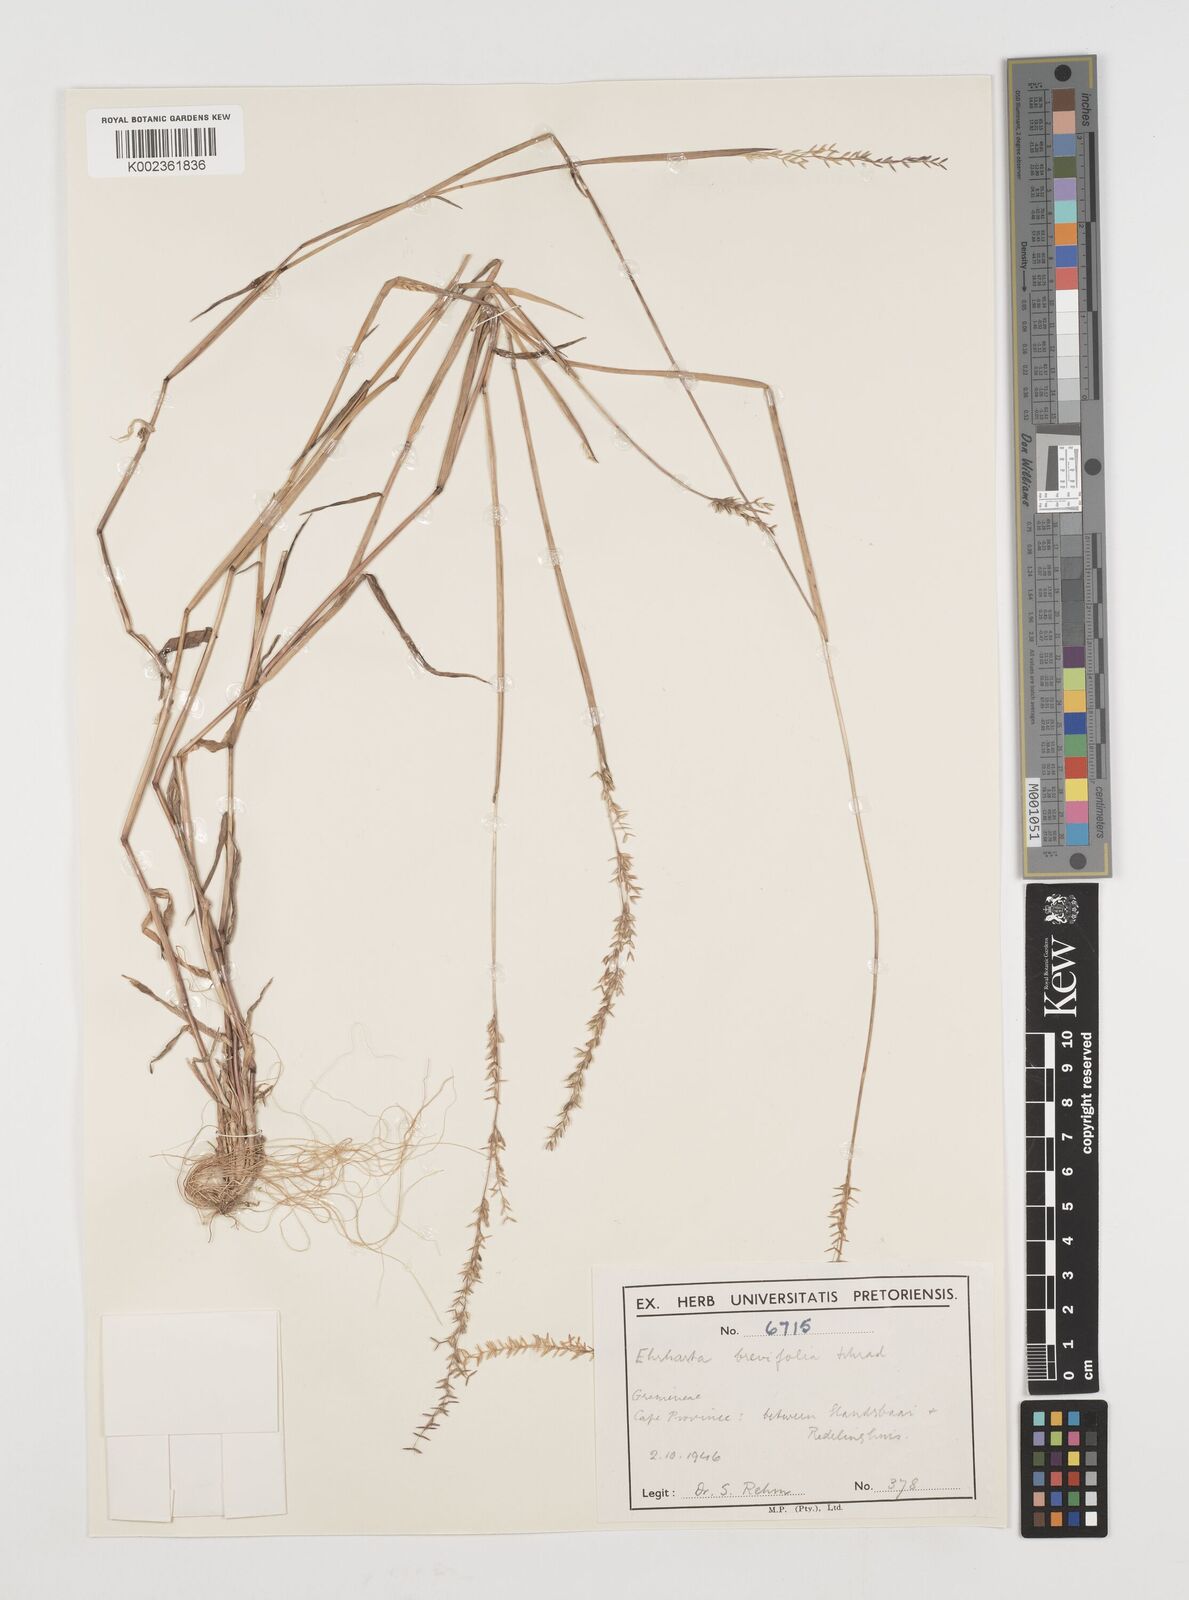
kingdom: Plantae
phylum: Tracheophyta
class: Liliopsida
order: Poales
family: Poaceae
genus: Ehrharta
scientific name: Ehrharta brevifolia
